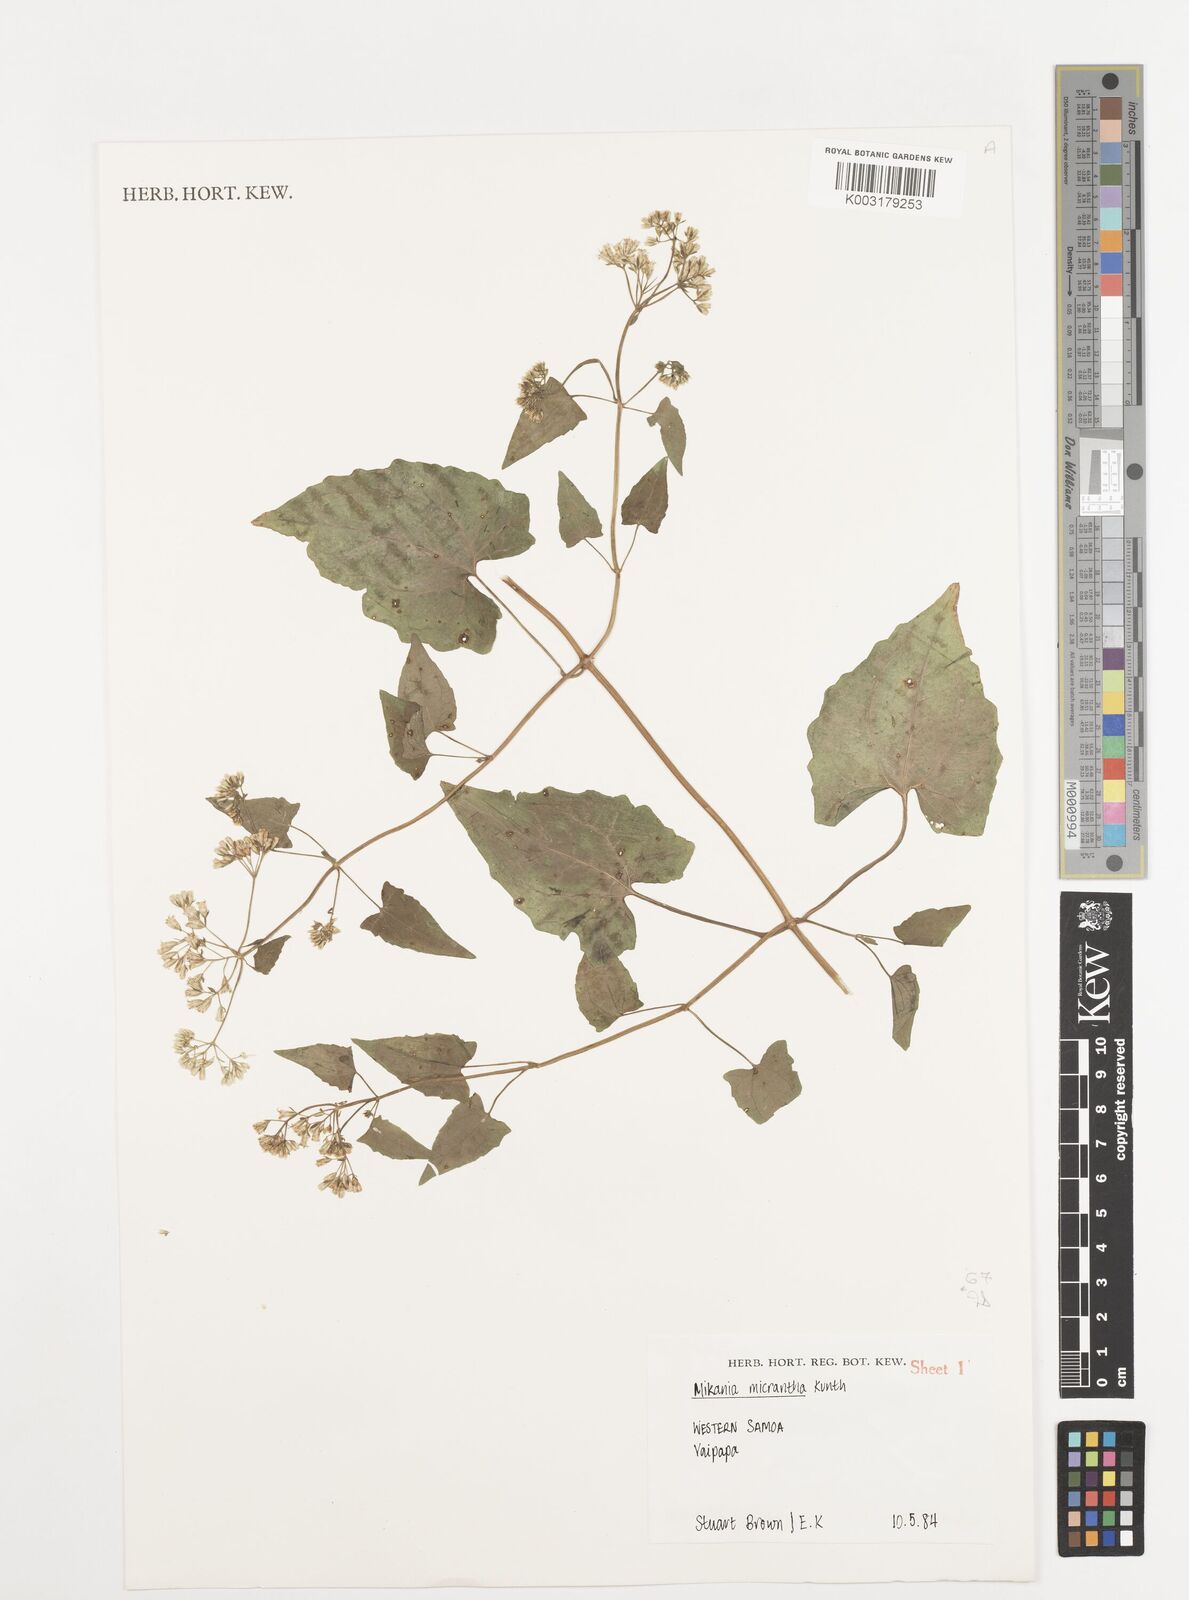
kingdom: Plantae
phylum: Tracheophyta
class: Magnoliopsida
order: Asterales
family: Asteraceae
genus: Mikania
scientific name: Mikania micrantha
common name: Mile-a-minute
